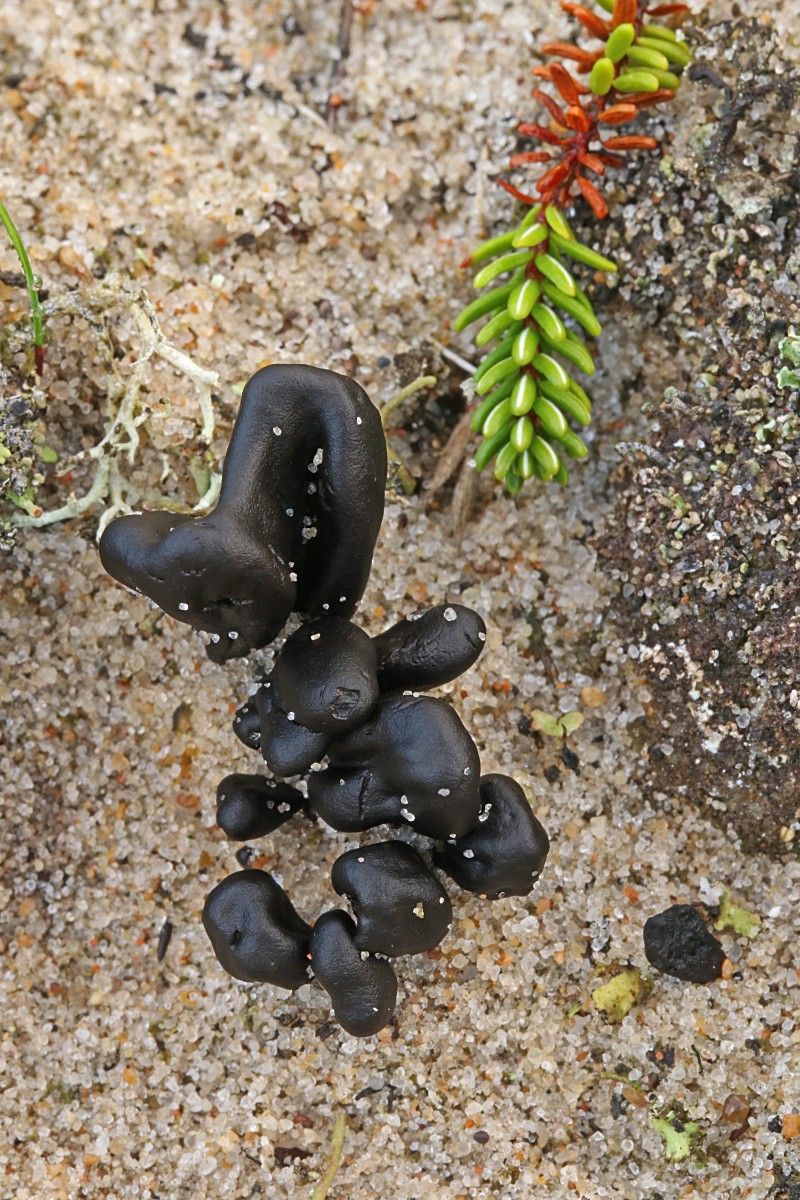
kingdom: Fungi
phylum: Ascomycota
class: Geoglossomycetes
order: Geoglossales
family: Geoglossaceae
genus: Sabuloglossum
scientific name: Sabuloglossum arenarium
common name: klit-jordtunge
